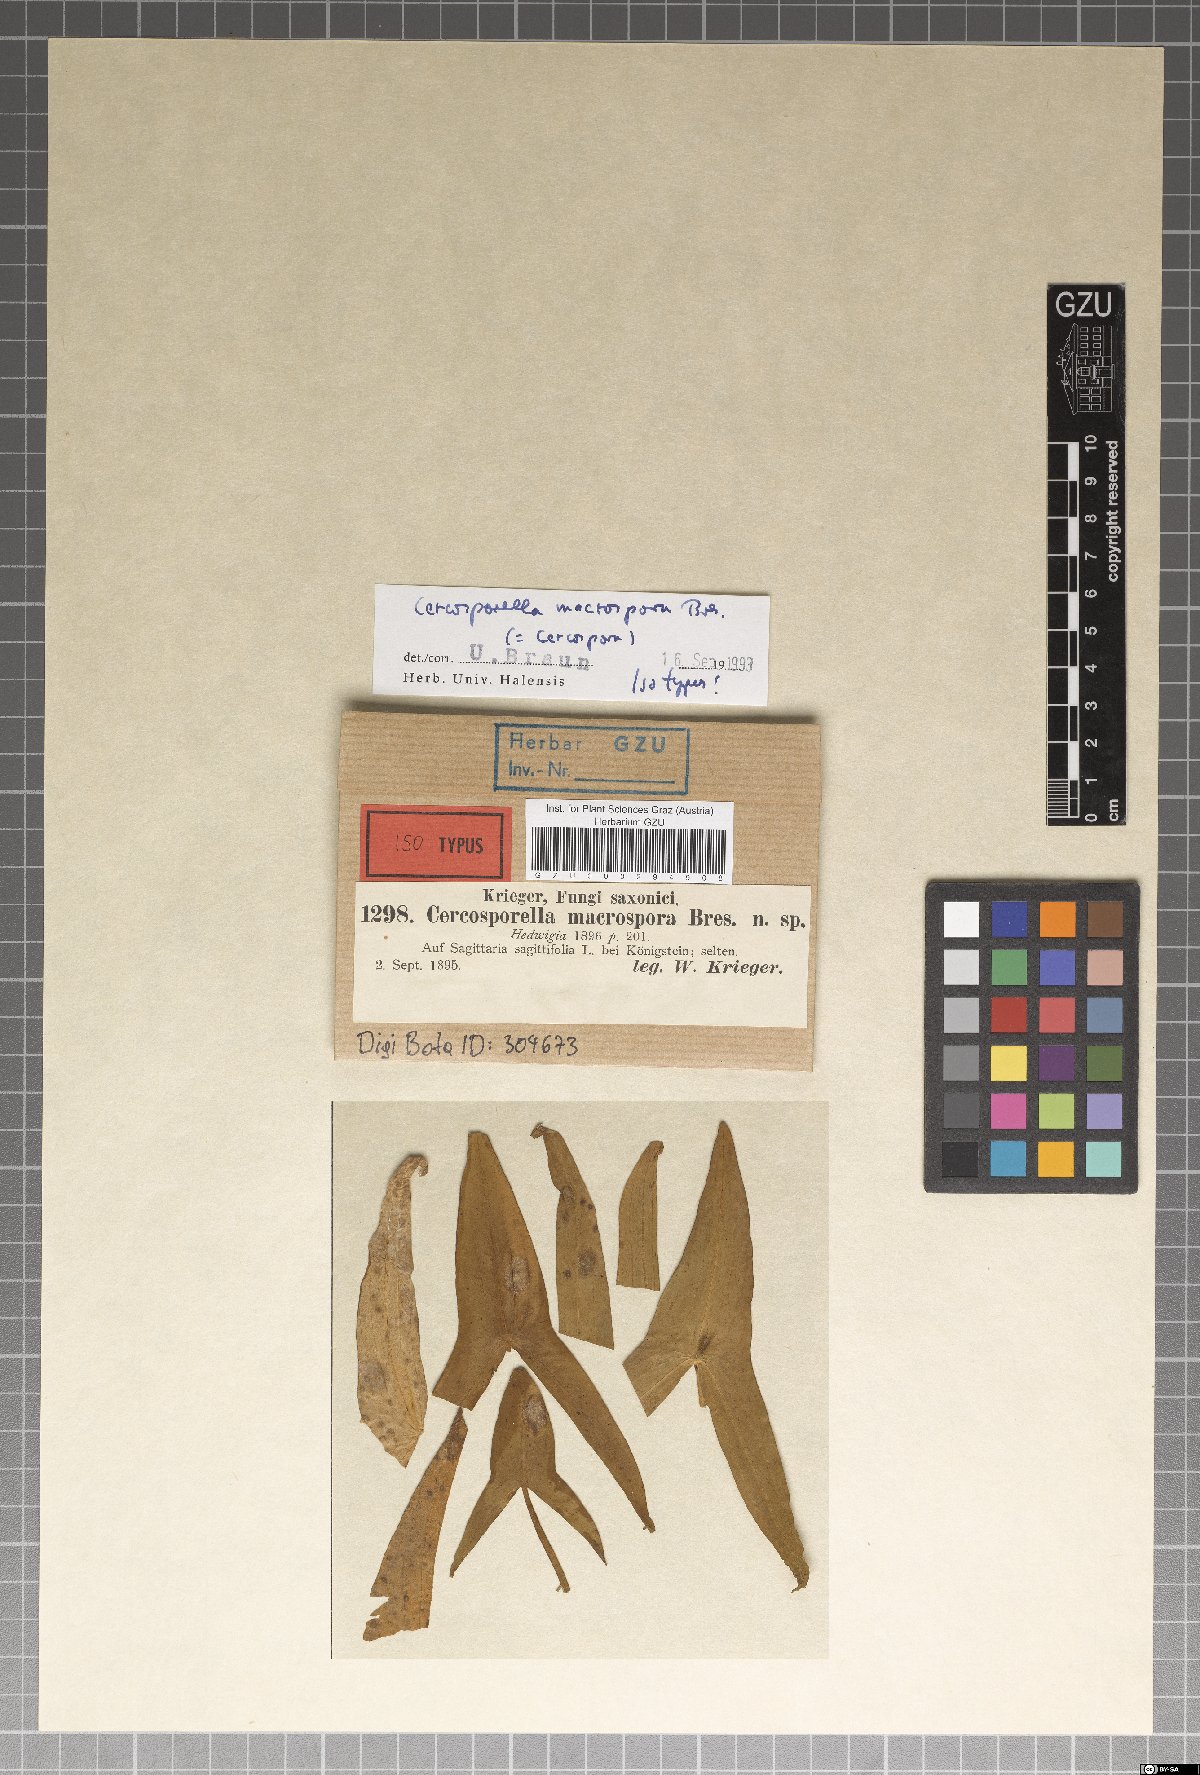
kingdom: Fungi
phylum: Ascomycota
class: Dothideomycetes
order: Mycosphaerellales
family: Mycosphaerellaceae
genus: Cercospora
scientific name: Cercospora sagittariae
